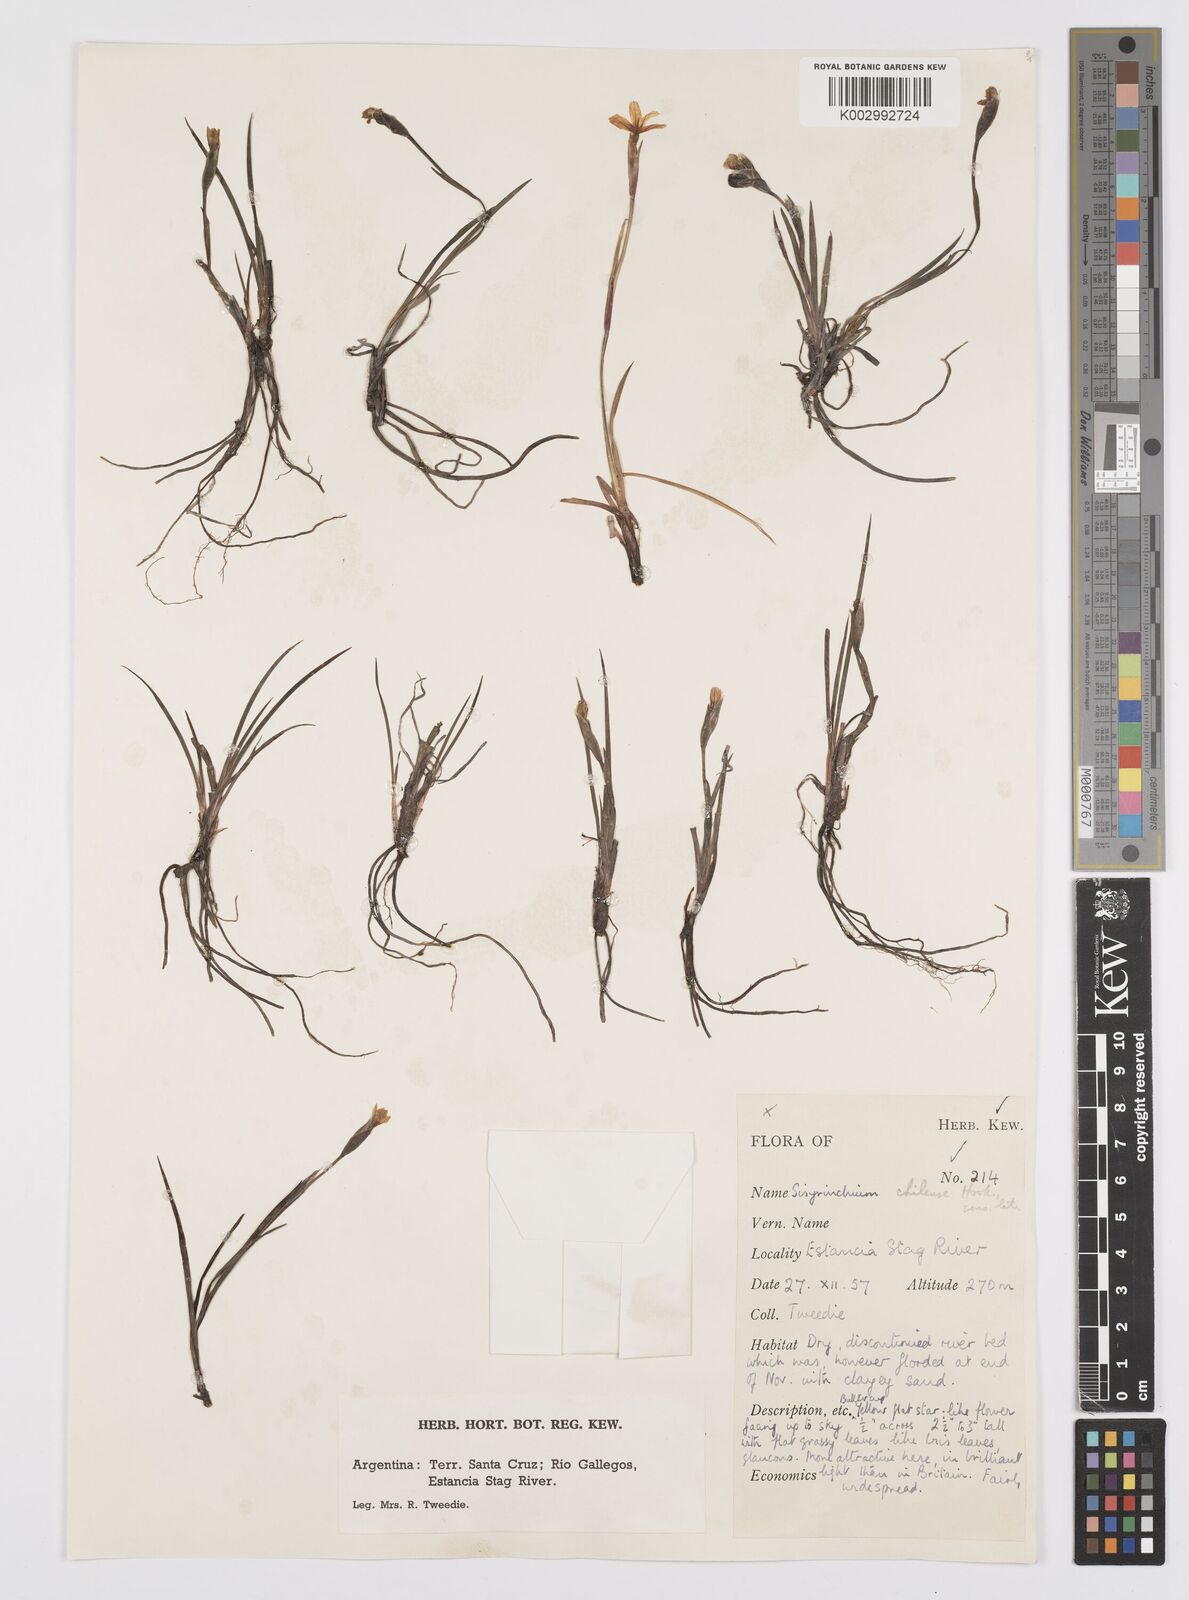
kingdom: Plantae
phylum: Tracheophyta
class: Liliopsida
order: Asparagales
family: Iridaceae
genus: Sisyrinchium
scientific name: Sisyrinchium chilense
